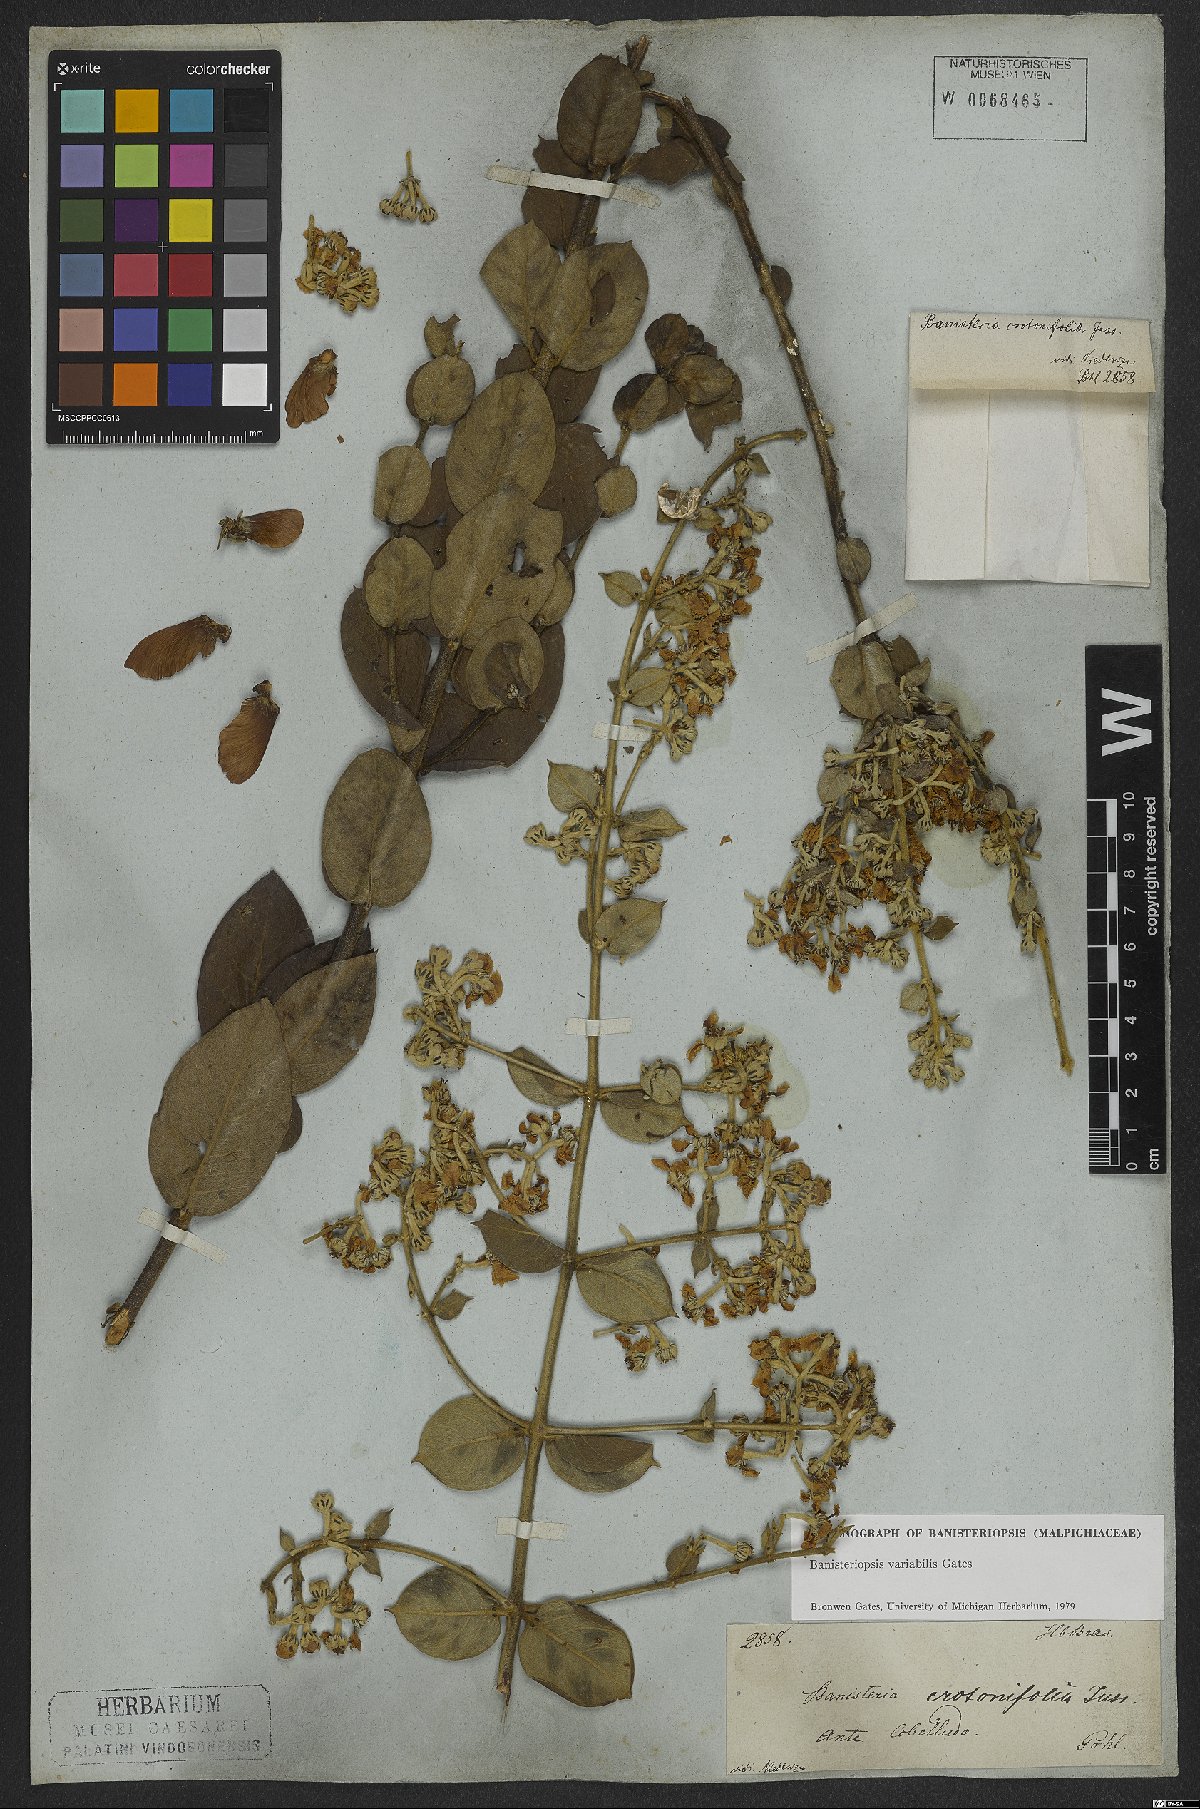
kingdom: Plantae
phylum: Tracheophyta
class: Magnoliopsida
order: Malpighiales
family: Malpighiaceae
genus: Banisteriopsis
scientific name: Banisteriopsis variabilis
